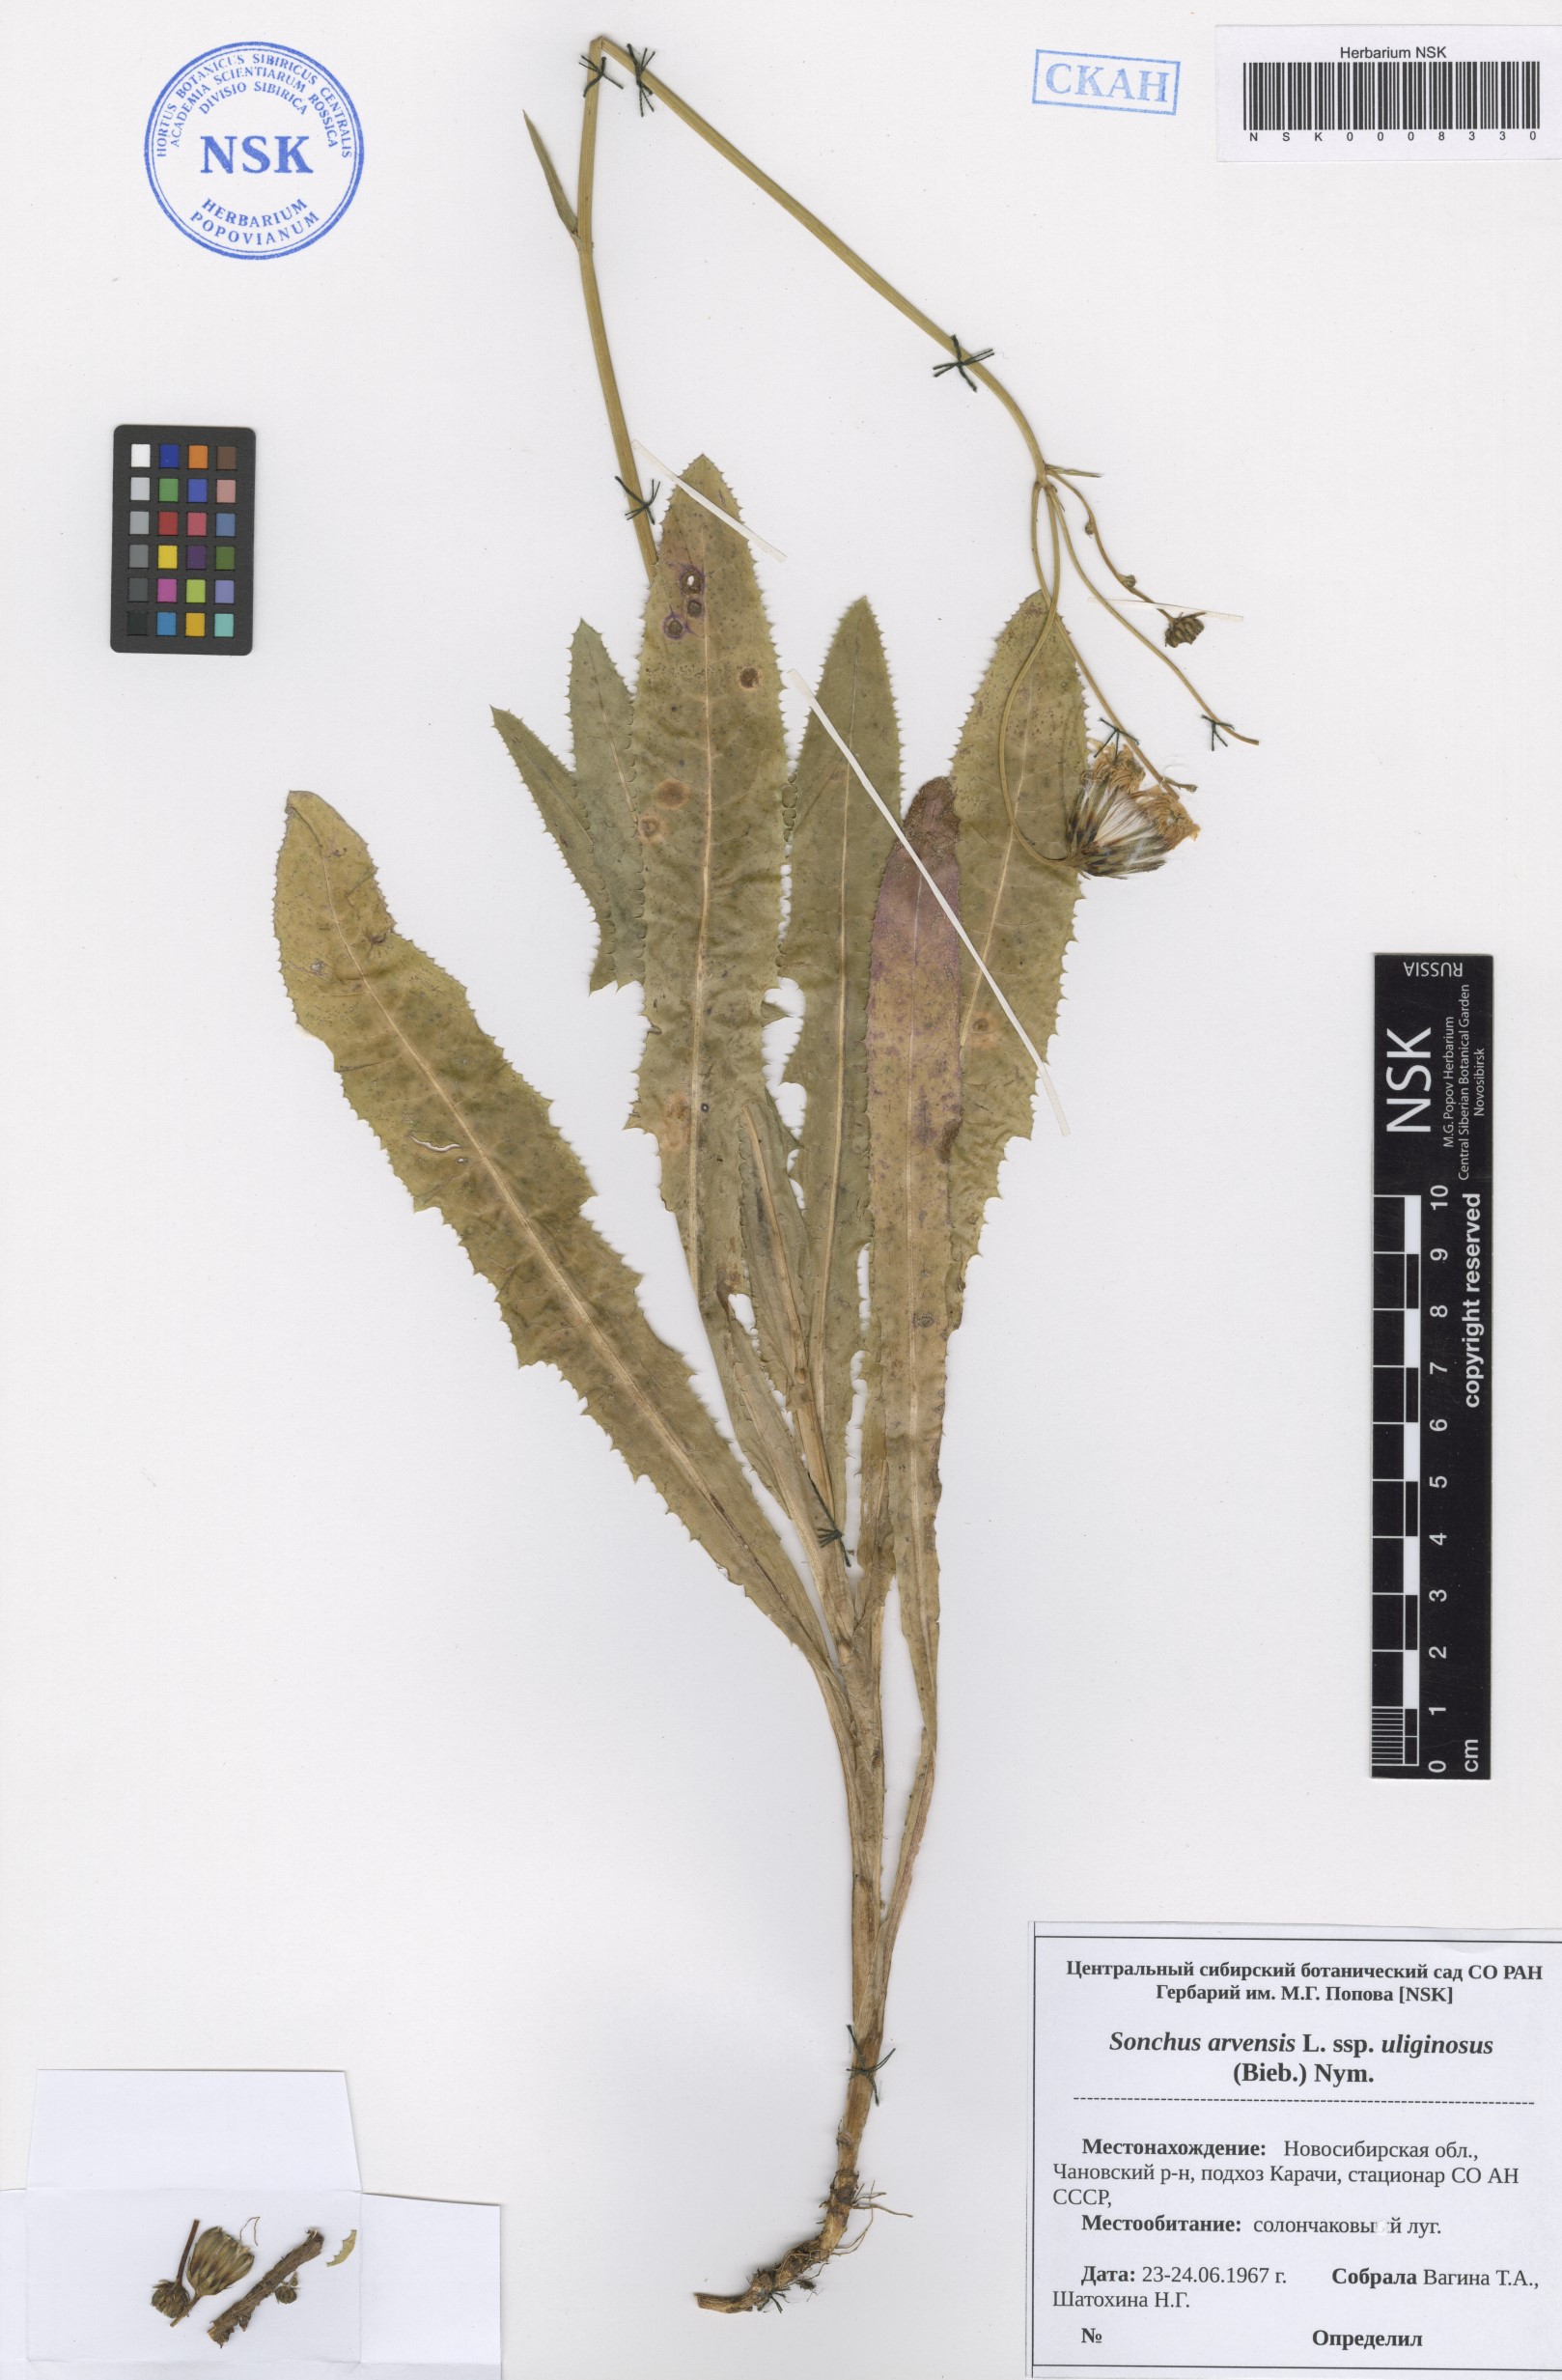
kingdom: Plantae
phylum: Tracheophyta
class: Magnoliopsida
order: Asterales
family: Asteraceae
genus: Sonchus
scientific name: Sonchus arvensis
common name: Perennial sow-thistle
